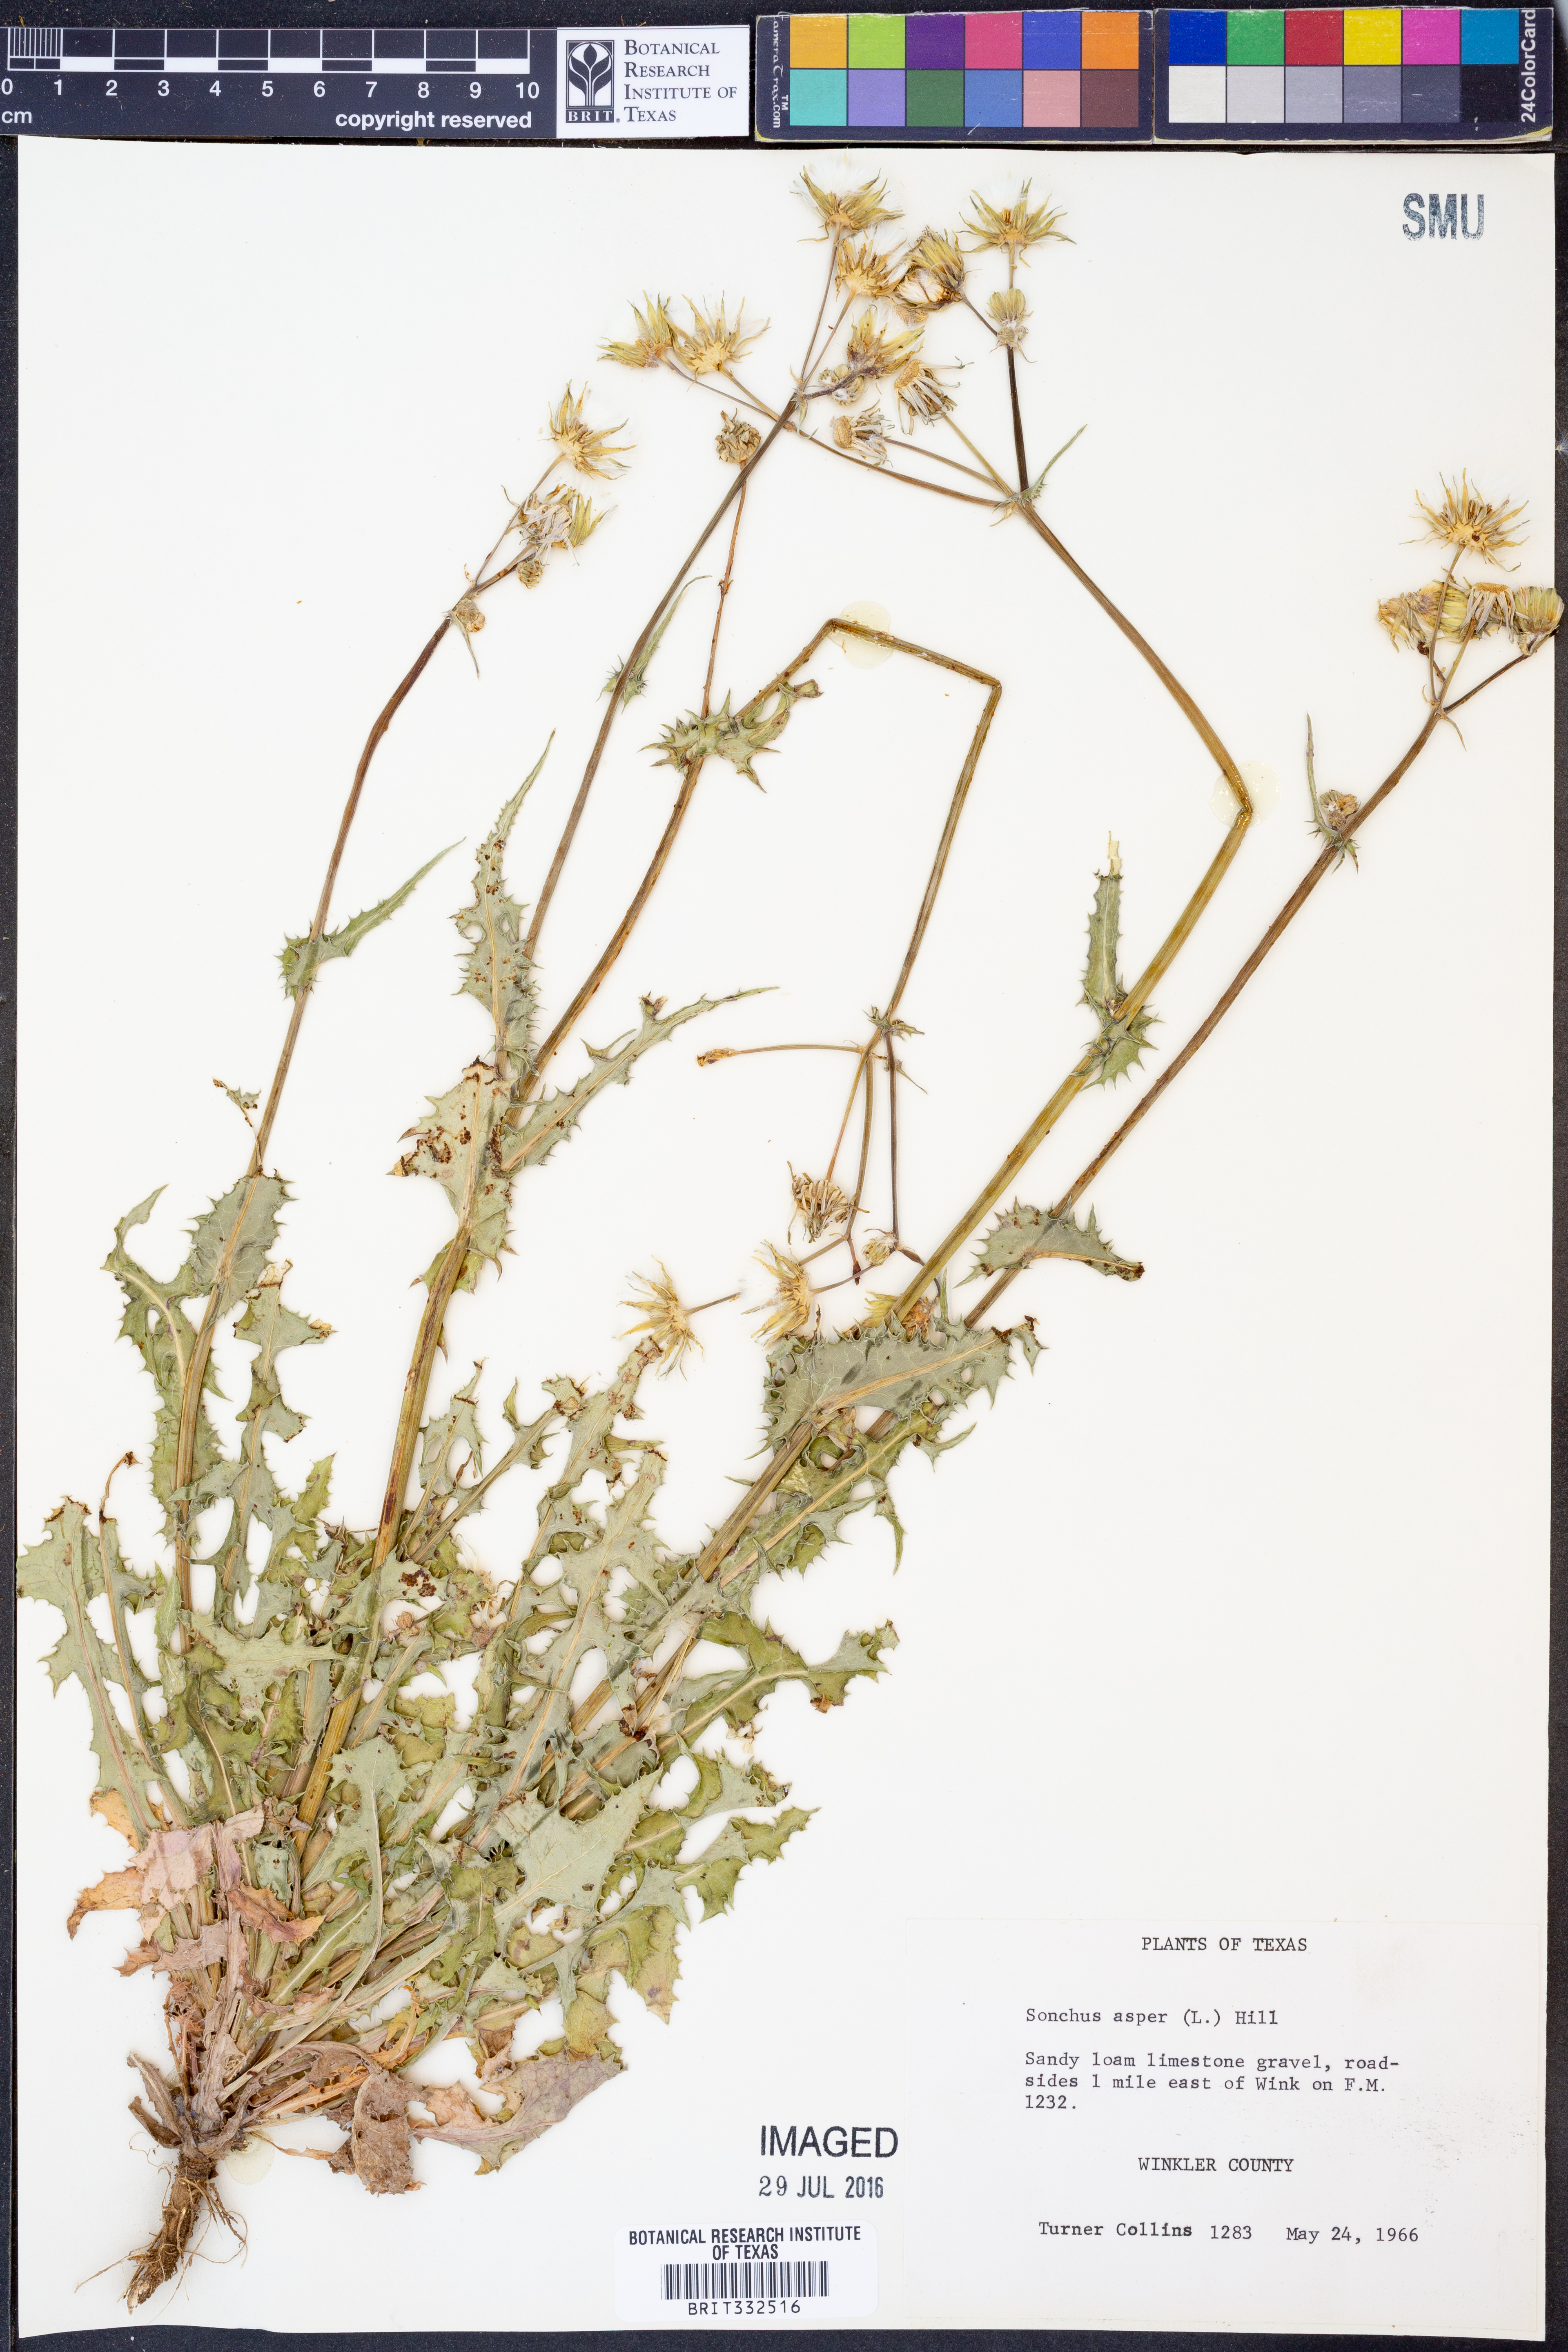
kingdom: Plantae
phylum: Tracheophyta
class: Magnoliopsida
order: Asterales
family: Asteraceae
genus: Sonchus
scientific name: Sonchus asper
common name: Prickly sow-thistle
